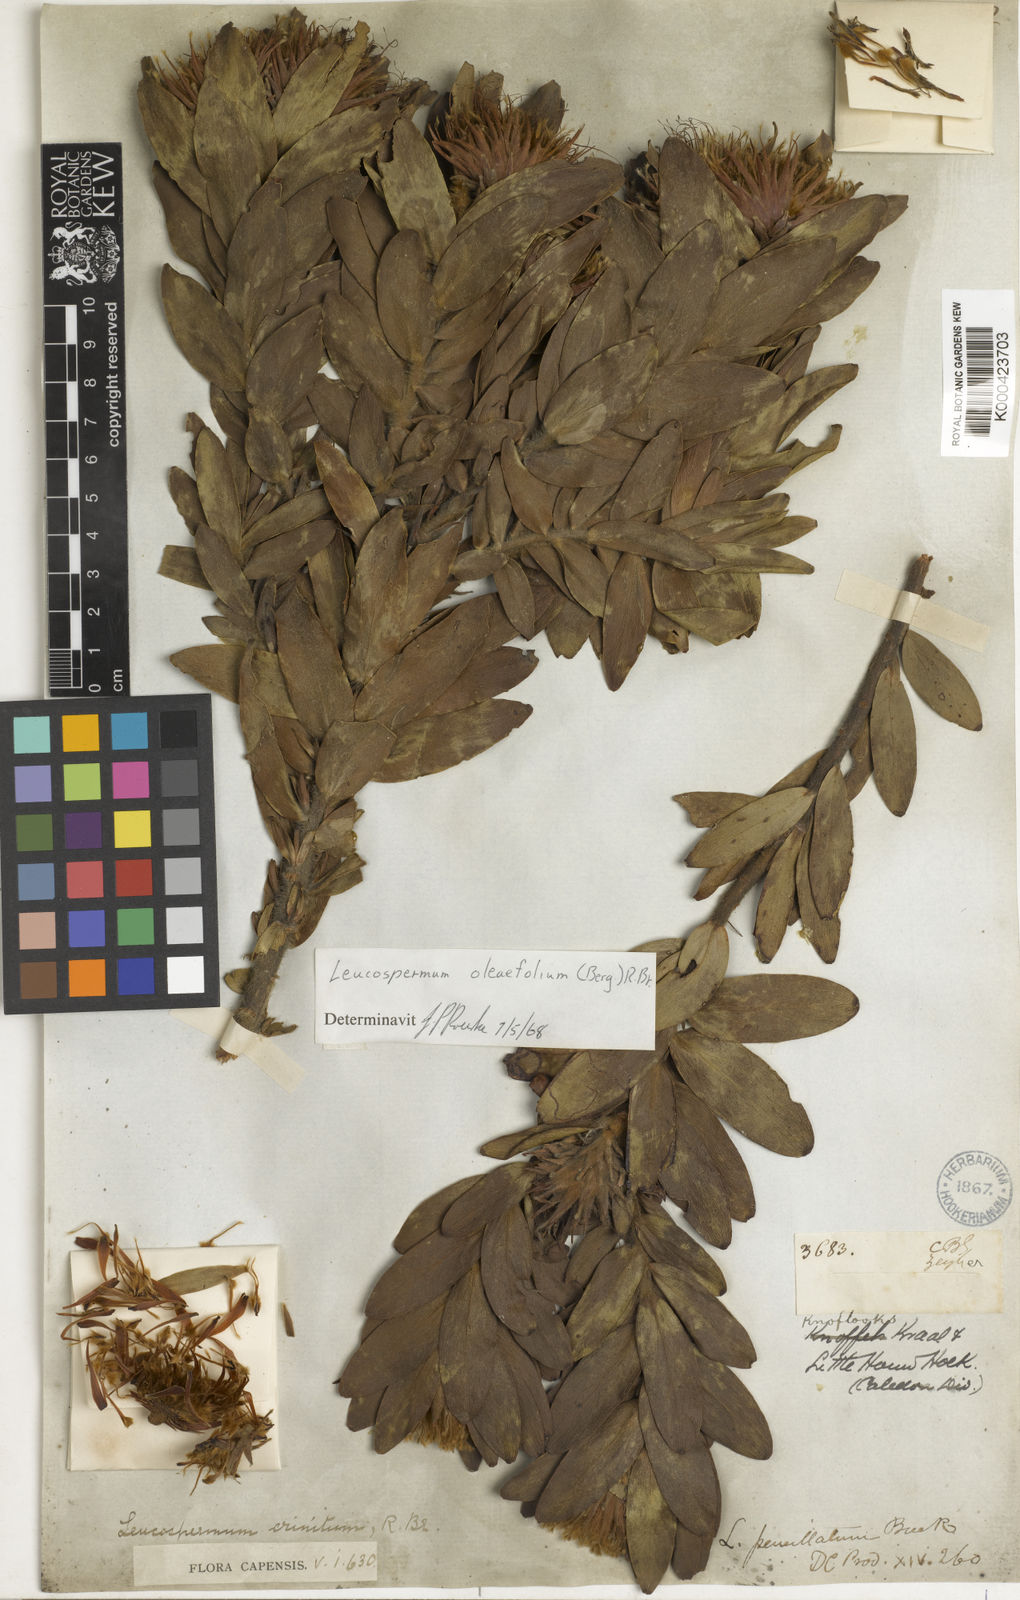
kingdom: Plantae
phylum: Tracheophyta
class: Magnoliopsida
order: Proteales
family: Proteaceae
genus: Leucospermum
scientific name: Leucospermum oleifolium
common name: Matches
